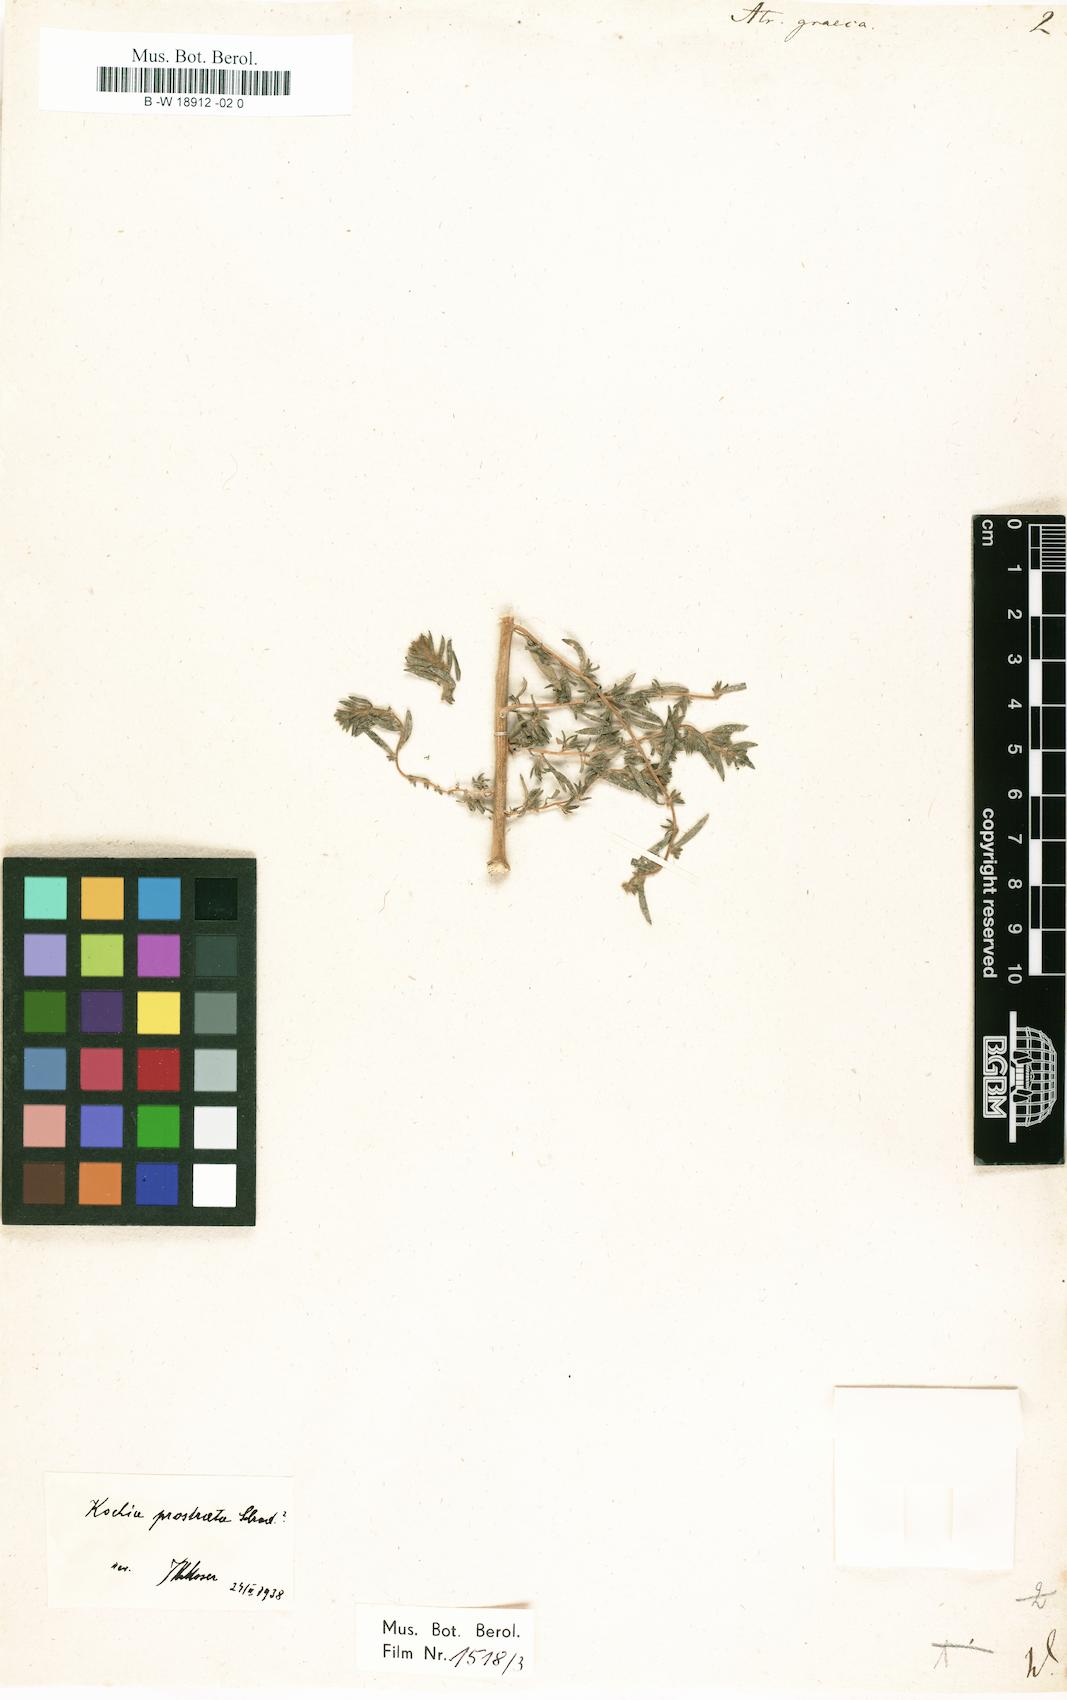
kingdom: Plantae
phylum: Tracheophyta
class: Magnoliopsida
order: Caryophyllales
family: Amaranthaceae
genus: Atriplex
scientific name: Atriplex graeca
